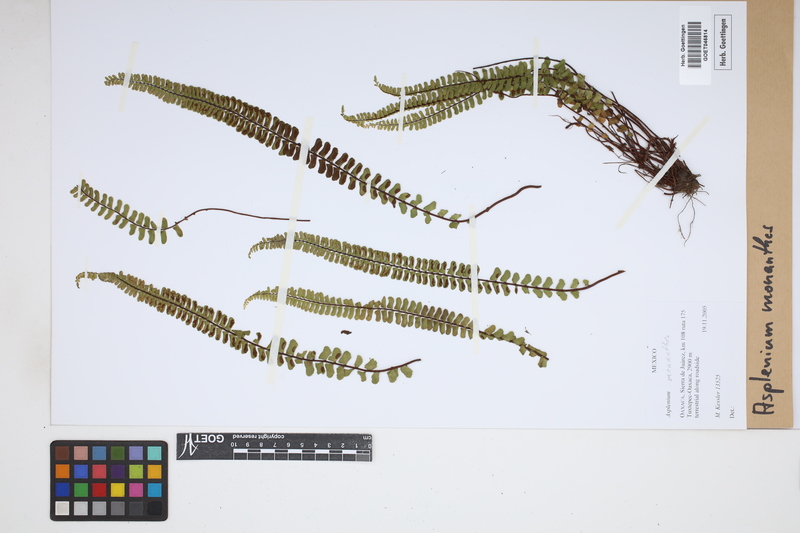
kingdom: Plantae
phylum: Tracheophyta
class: Polypodiopsida
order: Polypodiales
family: Aspleniaceae
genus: Asplenium
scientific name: Asplenium monanthes
